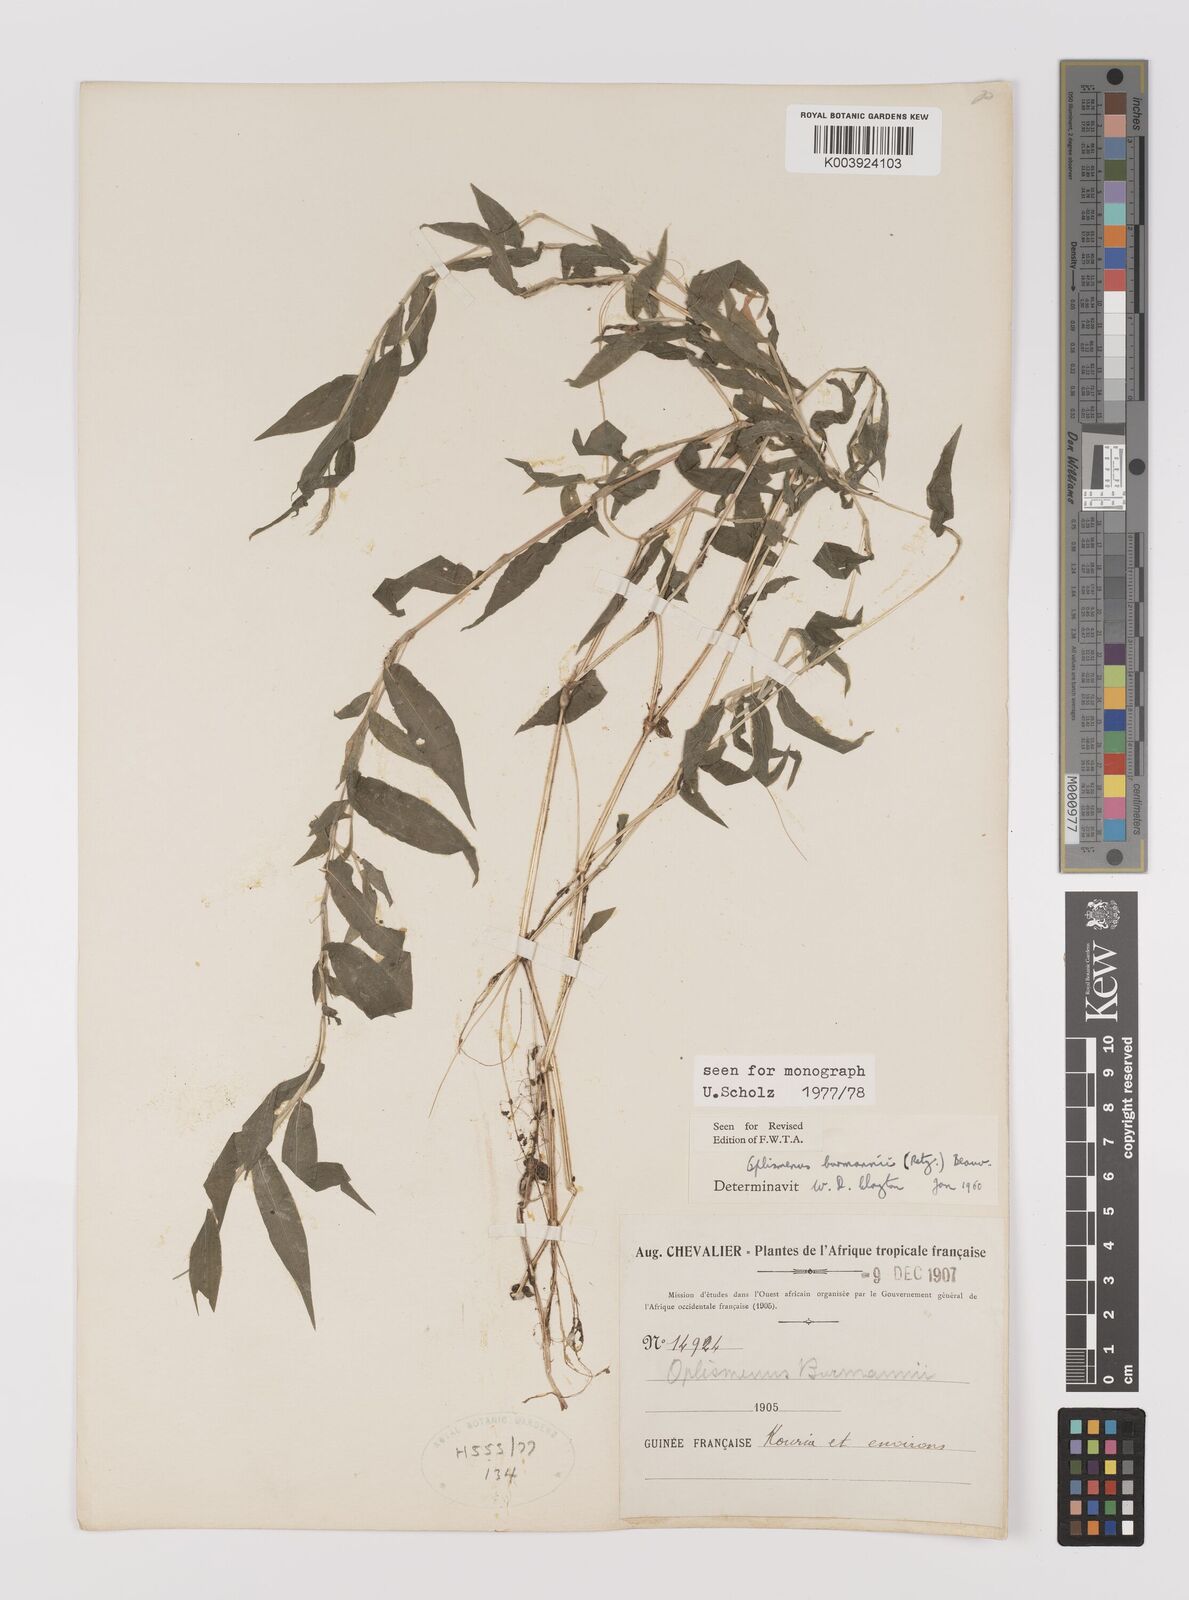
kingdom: Plantae
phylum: Tracheophyta
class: Liliopsida
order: Poales
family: Poaceae
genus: Oplismenus
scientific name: Oplismenus burmanni
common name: Burmann's basketgrass
